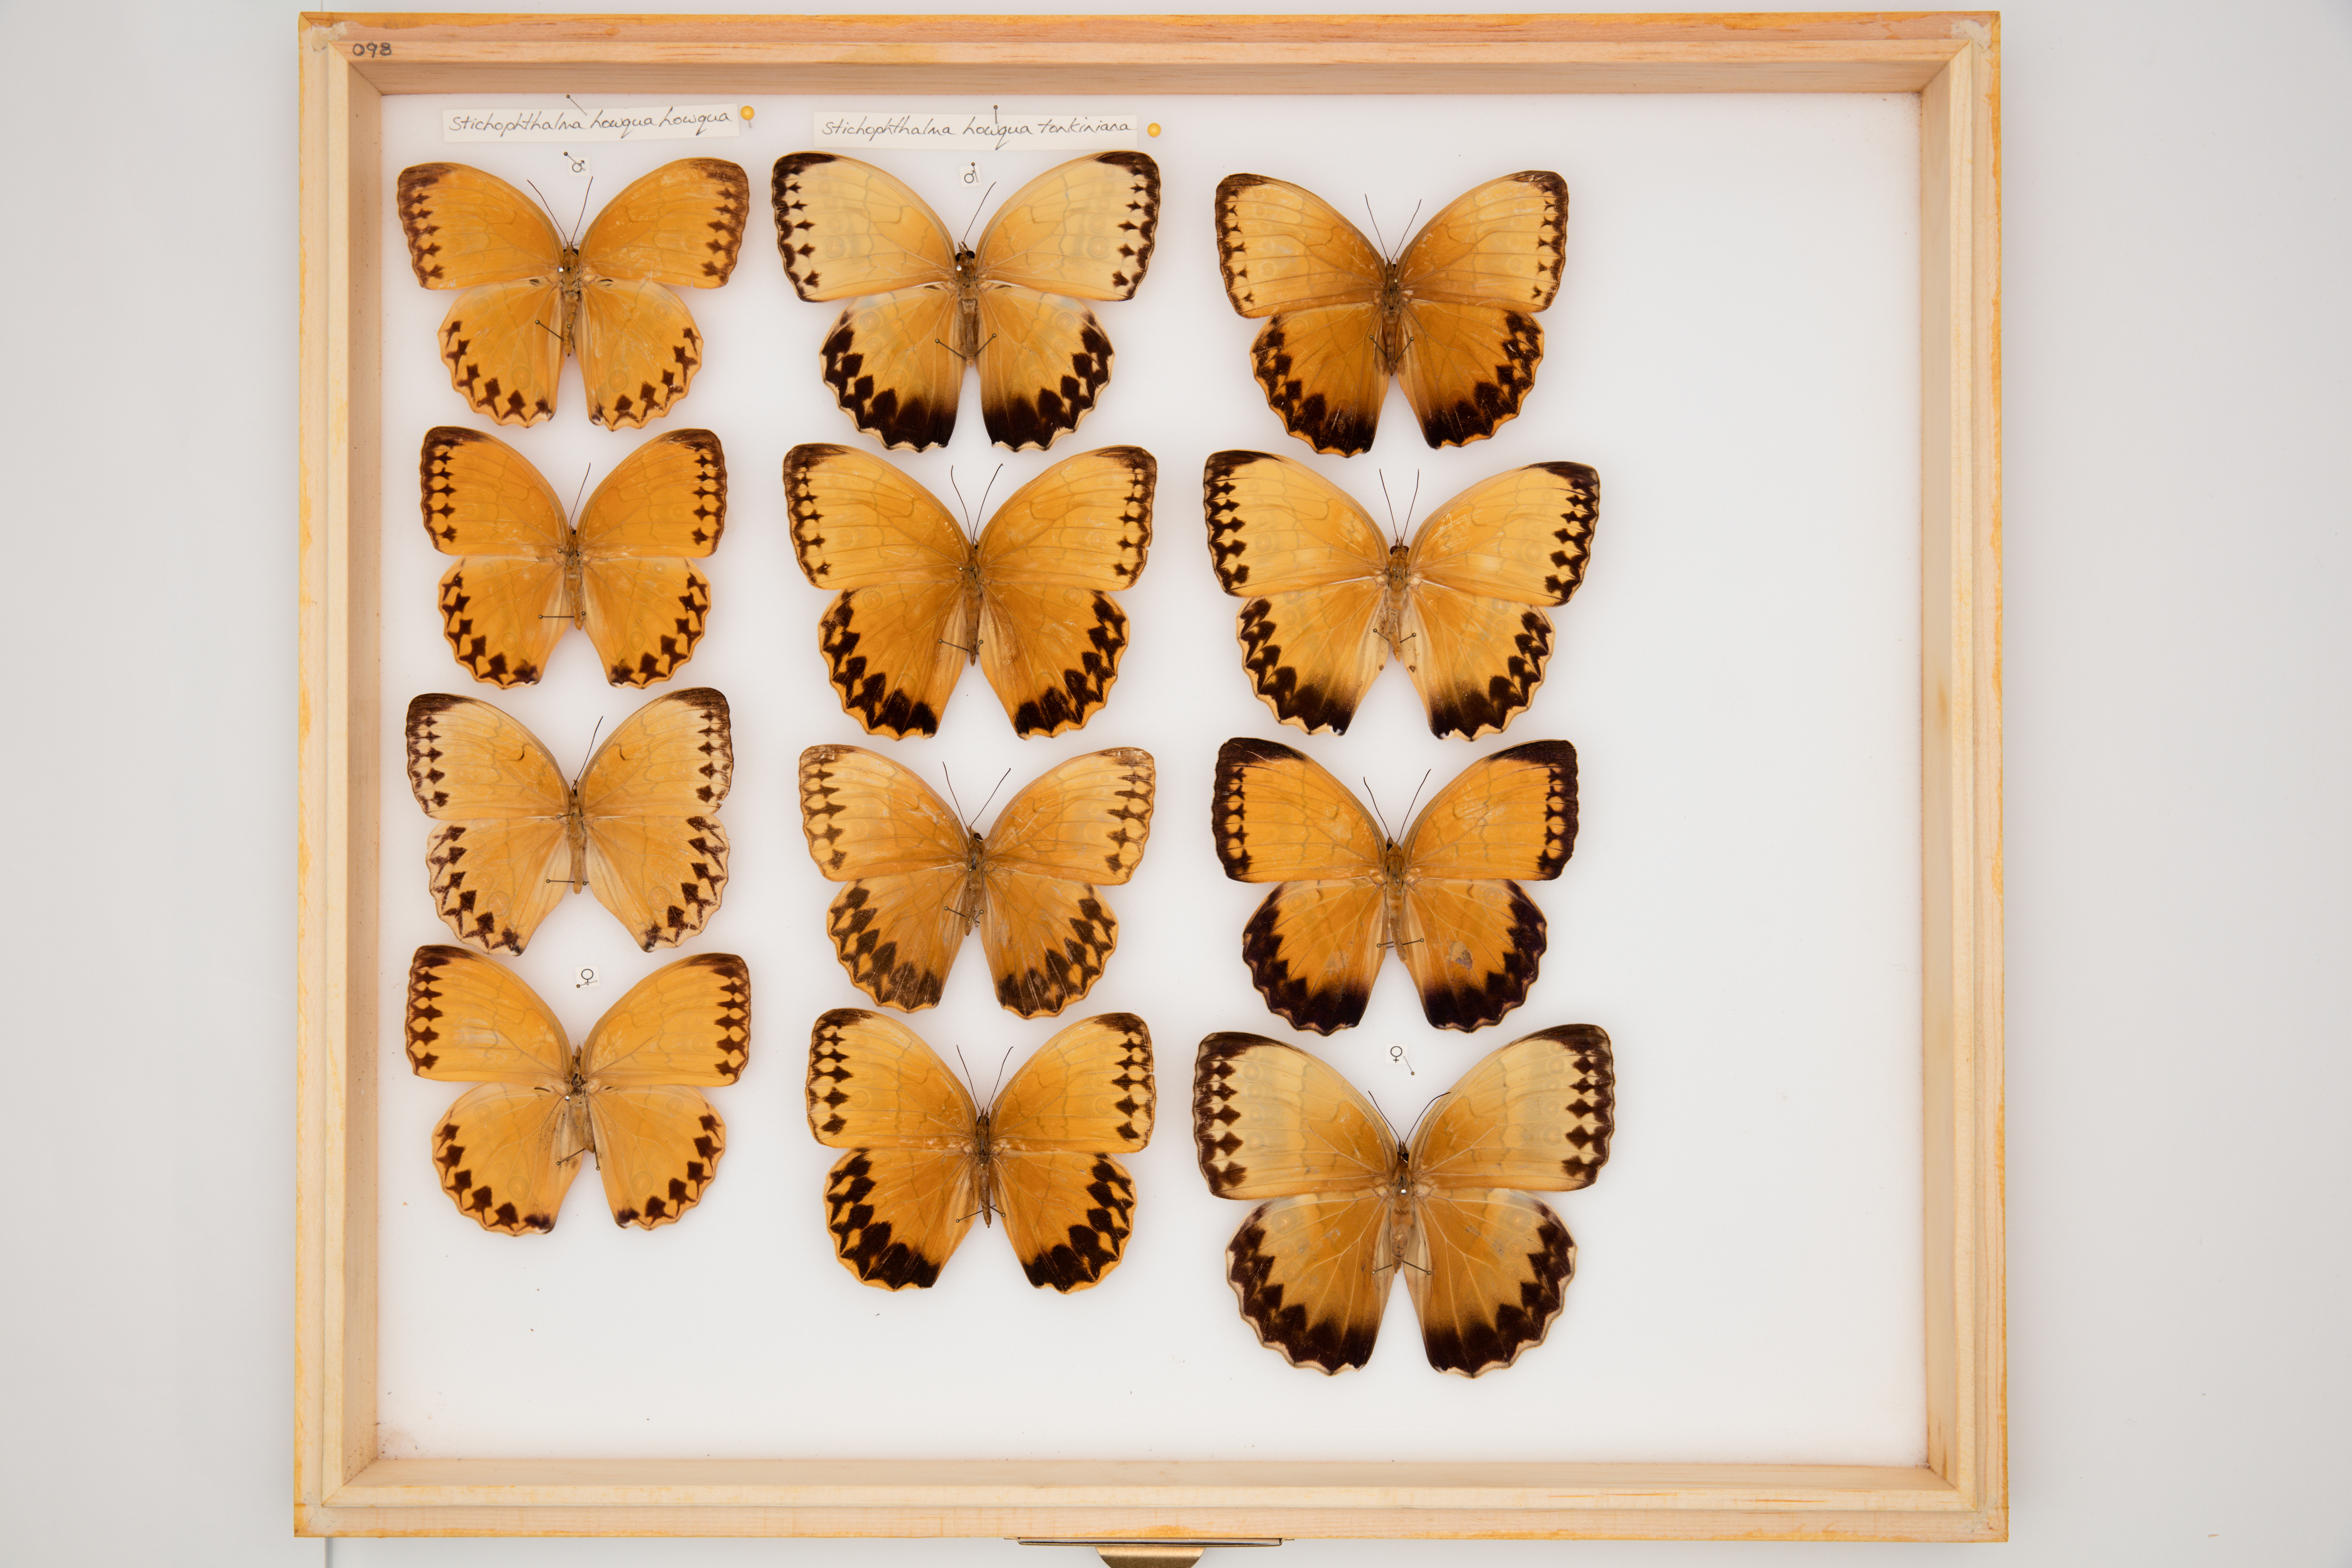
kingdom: Animalia
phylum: Arthropoda
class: Insecta
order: Lepidoptera
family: Nymphalidae
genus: Stichophthalma
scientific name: Stichophthalma howqua
